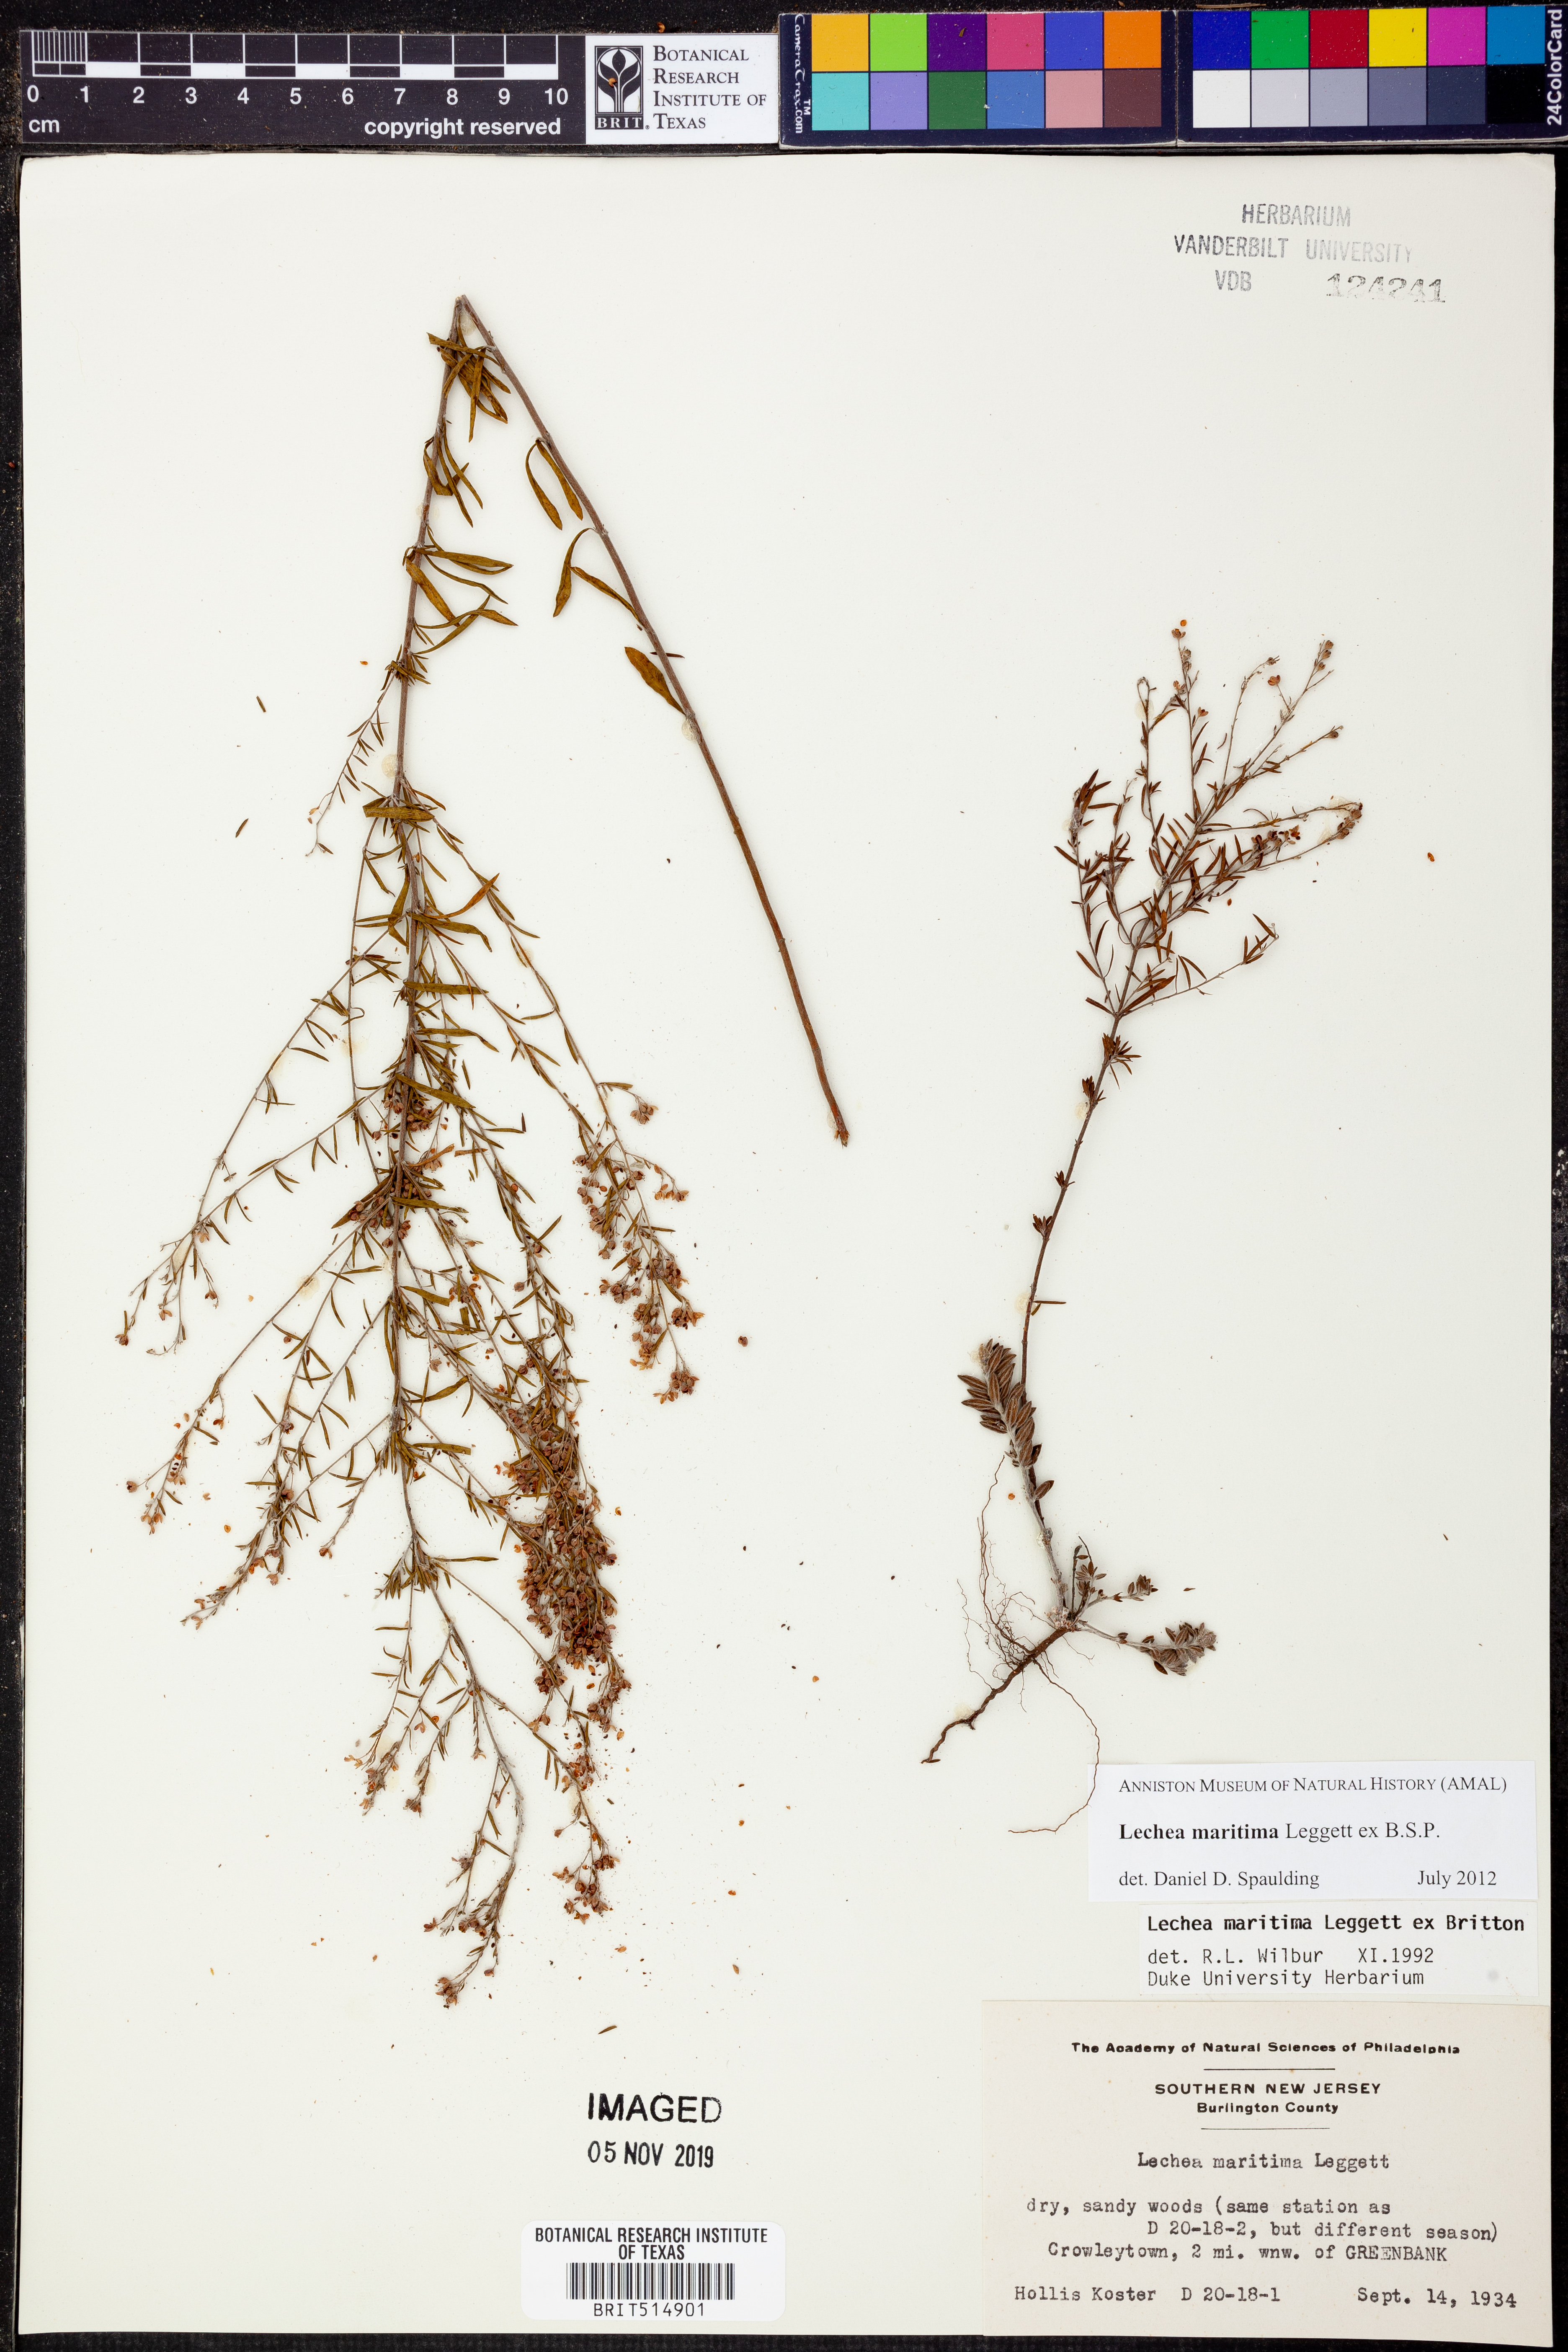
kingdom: Plantae
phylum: Tracheophyta
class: Magnoliopsida
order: Malvales
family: Cistaceae
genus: Lechea
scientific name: Lechea maritima
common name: Beach pinweed
